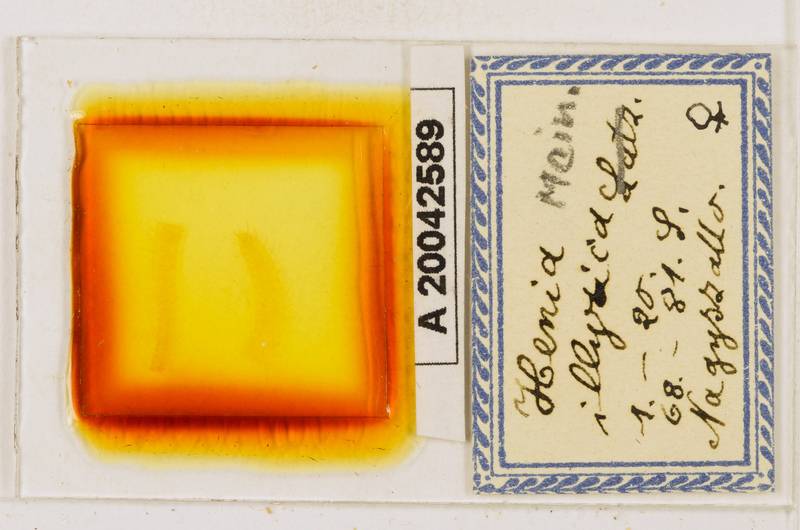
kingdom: Animalia
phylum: Arthropoda
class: Chilopoda
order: Geophilomorpha
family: Dignathodontidae
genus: Henia
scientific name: Henia illyrica
